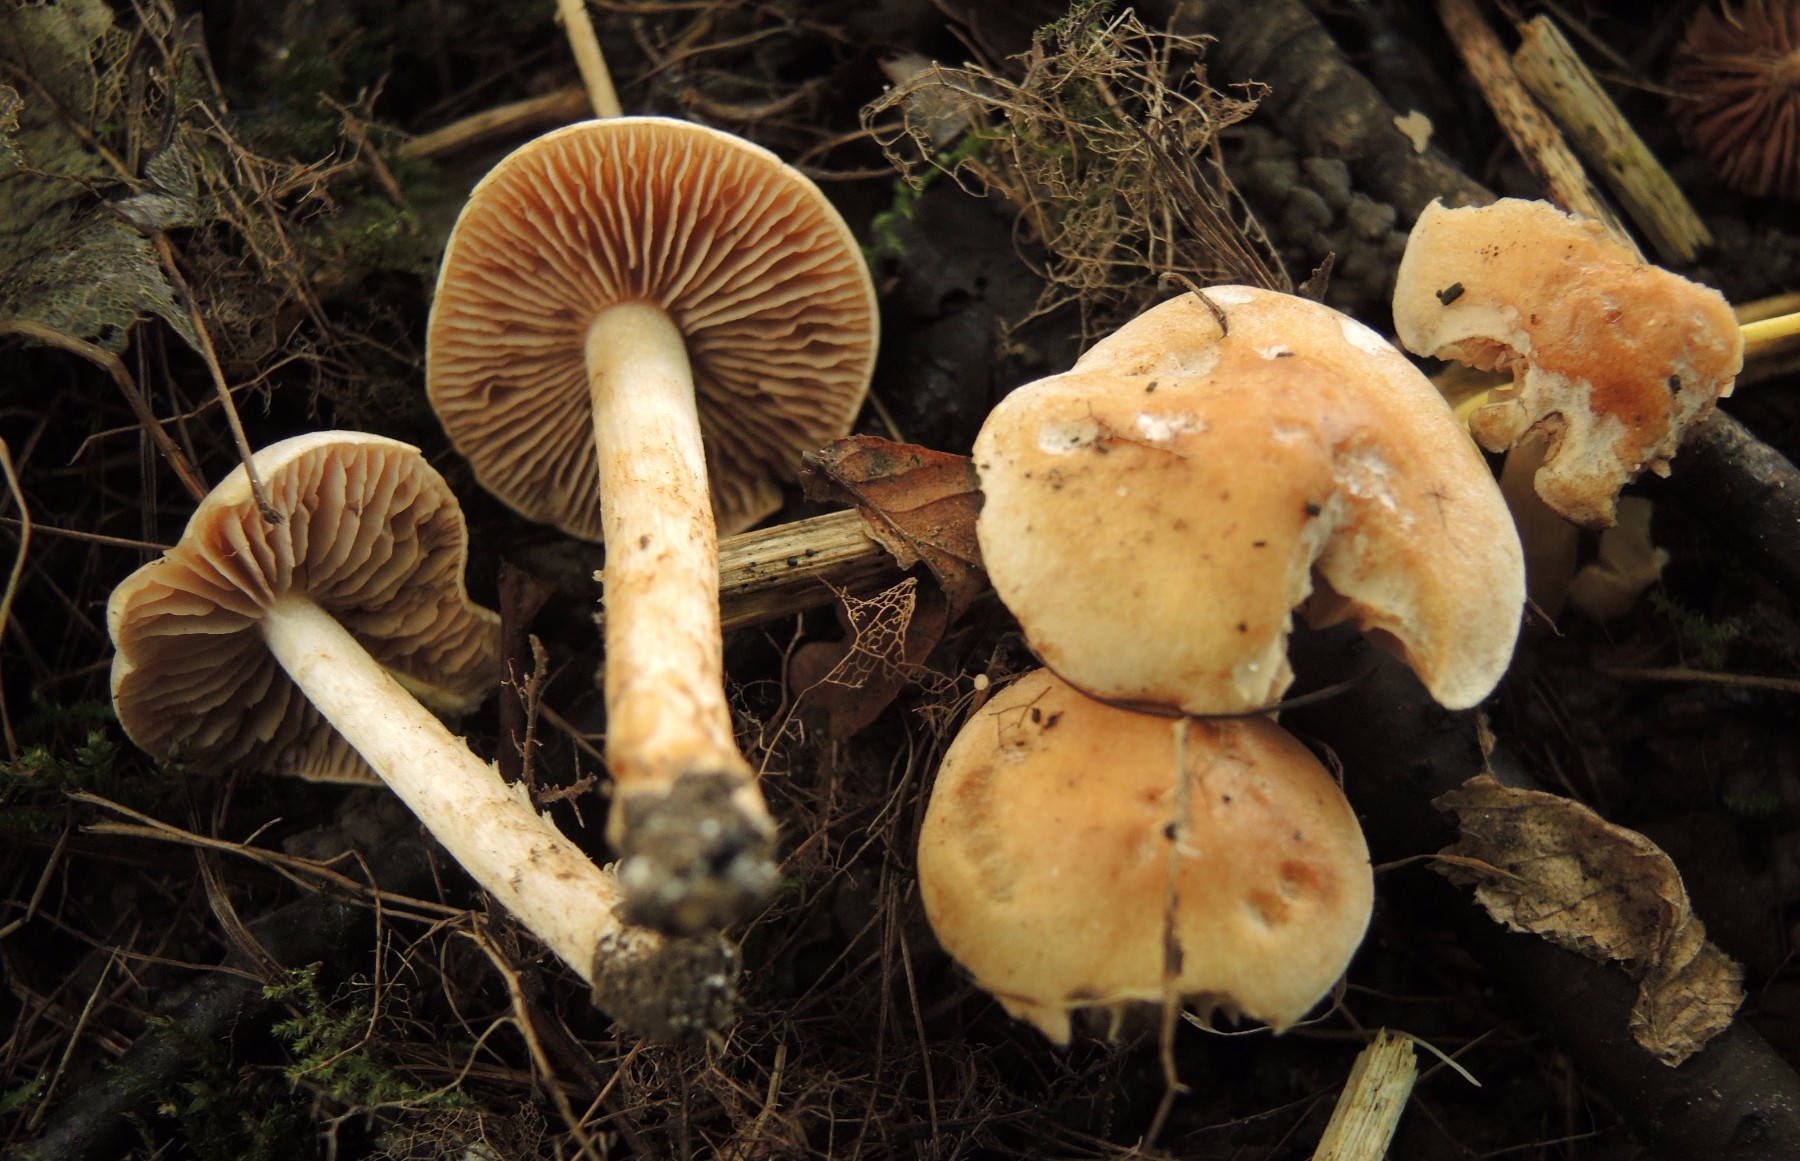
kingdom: Fungi
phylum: Basidiomycota
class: Agaricomycetes
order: Agaricales
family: Hymenogastraceae
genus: Hebeloma
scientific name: Hebeloma sacchariolens
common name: sødtduftende tåreblad
